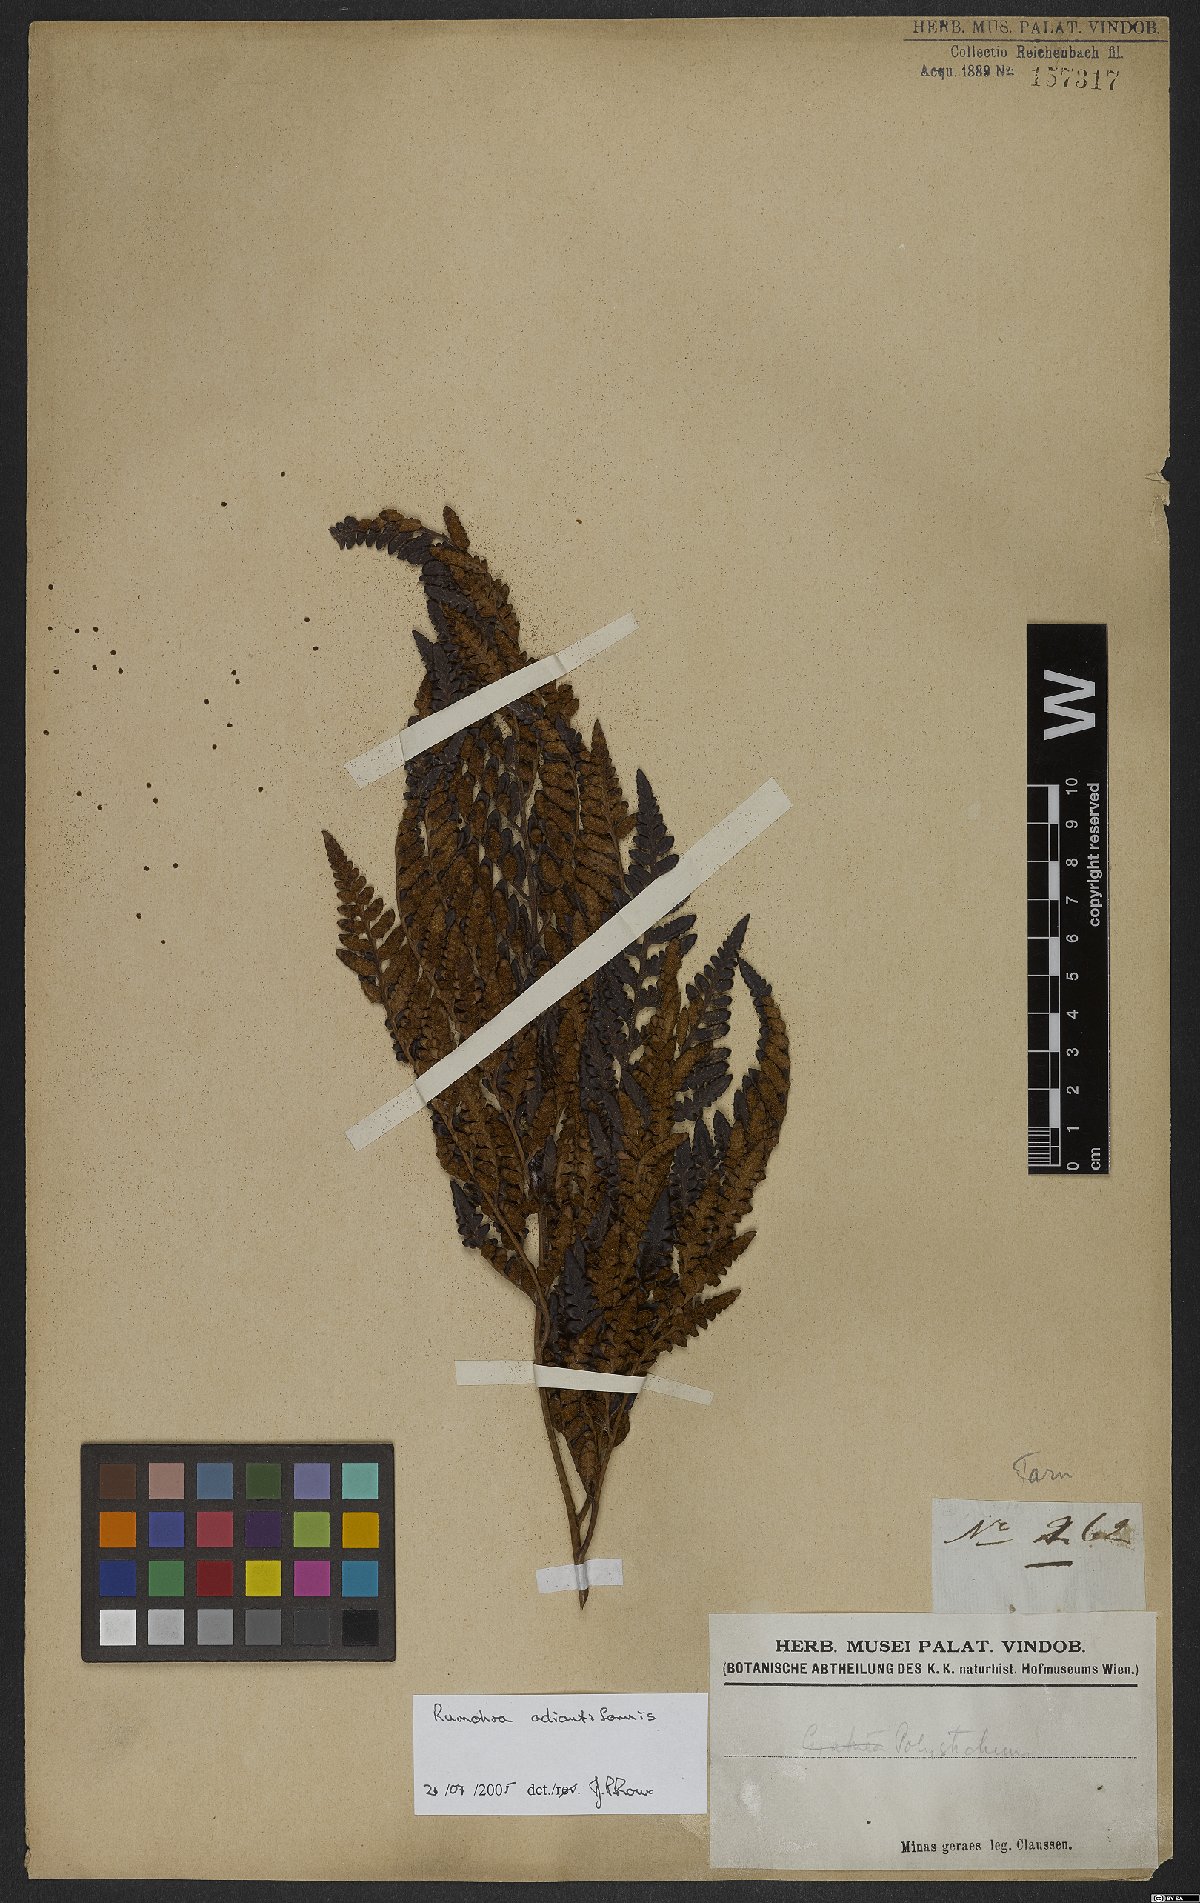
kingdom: Plantae
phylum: Tracheophyta
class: Polypodiopsida
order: Polypodiales
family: Dryopteridaceae
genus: Rumohra
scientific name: Rumohra adiantiformis
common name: Leather fern
